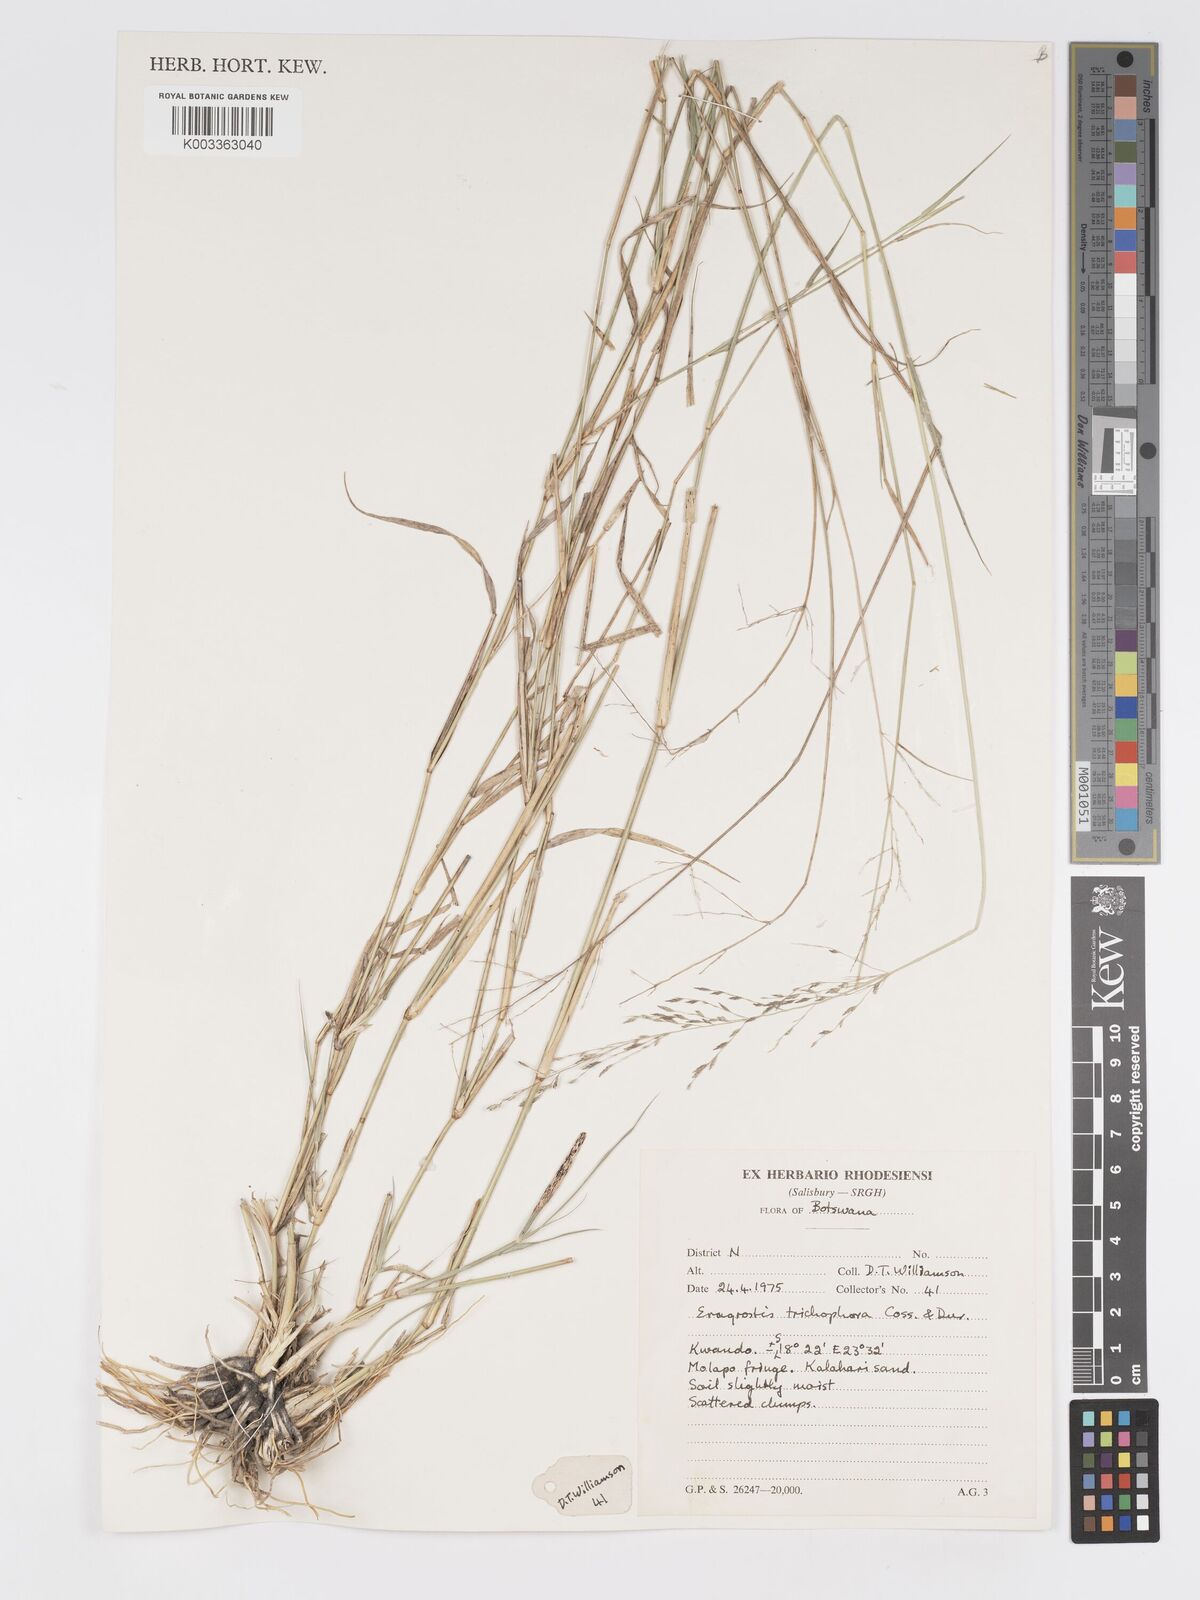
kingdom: Plantae
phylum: Tracheophyta
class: Liliopsida
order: Poales
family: Poaceae
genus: Eragrostis
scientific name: Eragrostis cylindriflora
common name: Cylinderflower lovegrass
